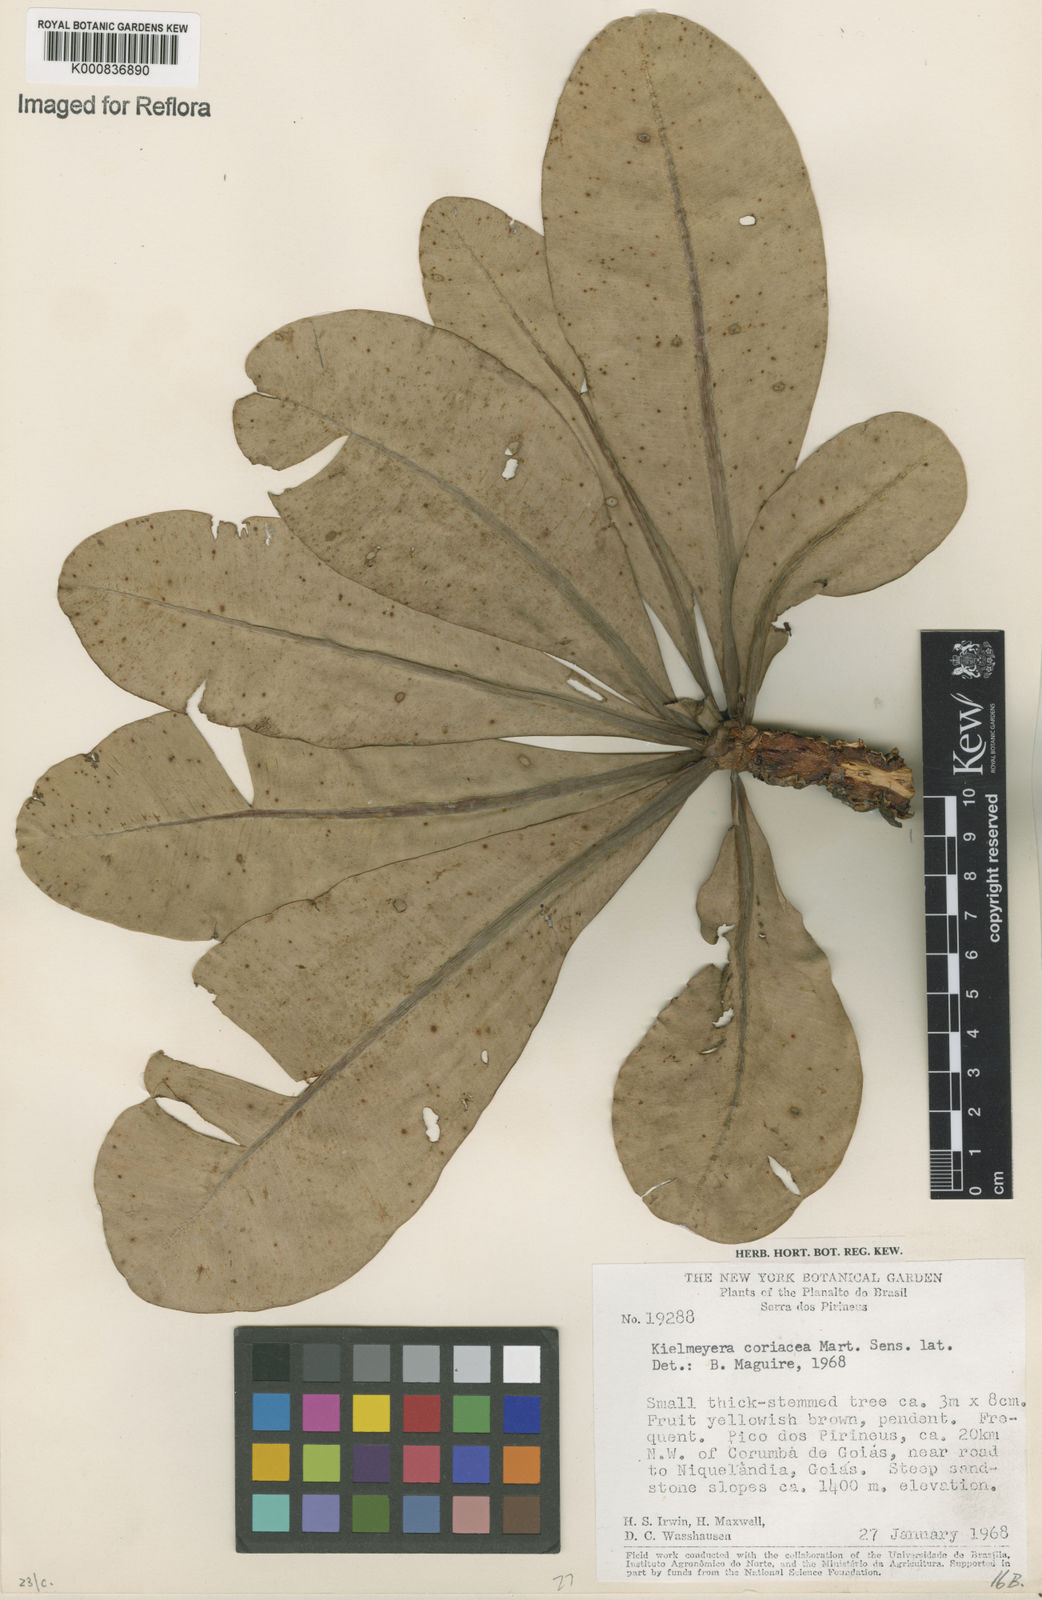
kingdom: Plantae
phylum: Tracheophyta
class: Magnoliopsida
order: Malpighiales
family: Calophyllaceae
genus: Kielmeyera
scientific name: Kielmeyera coriacea
